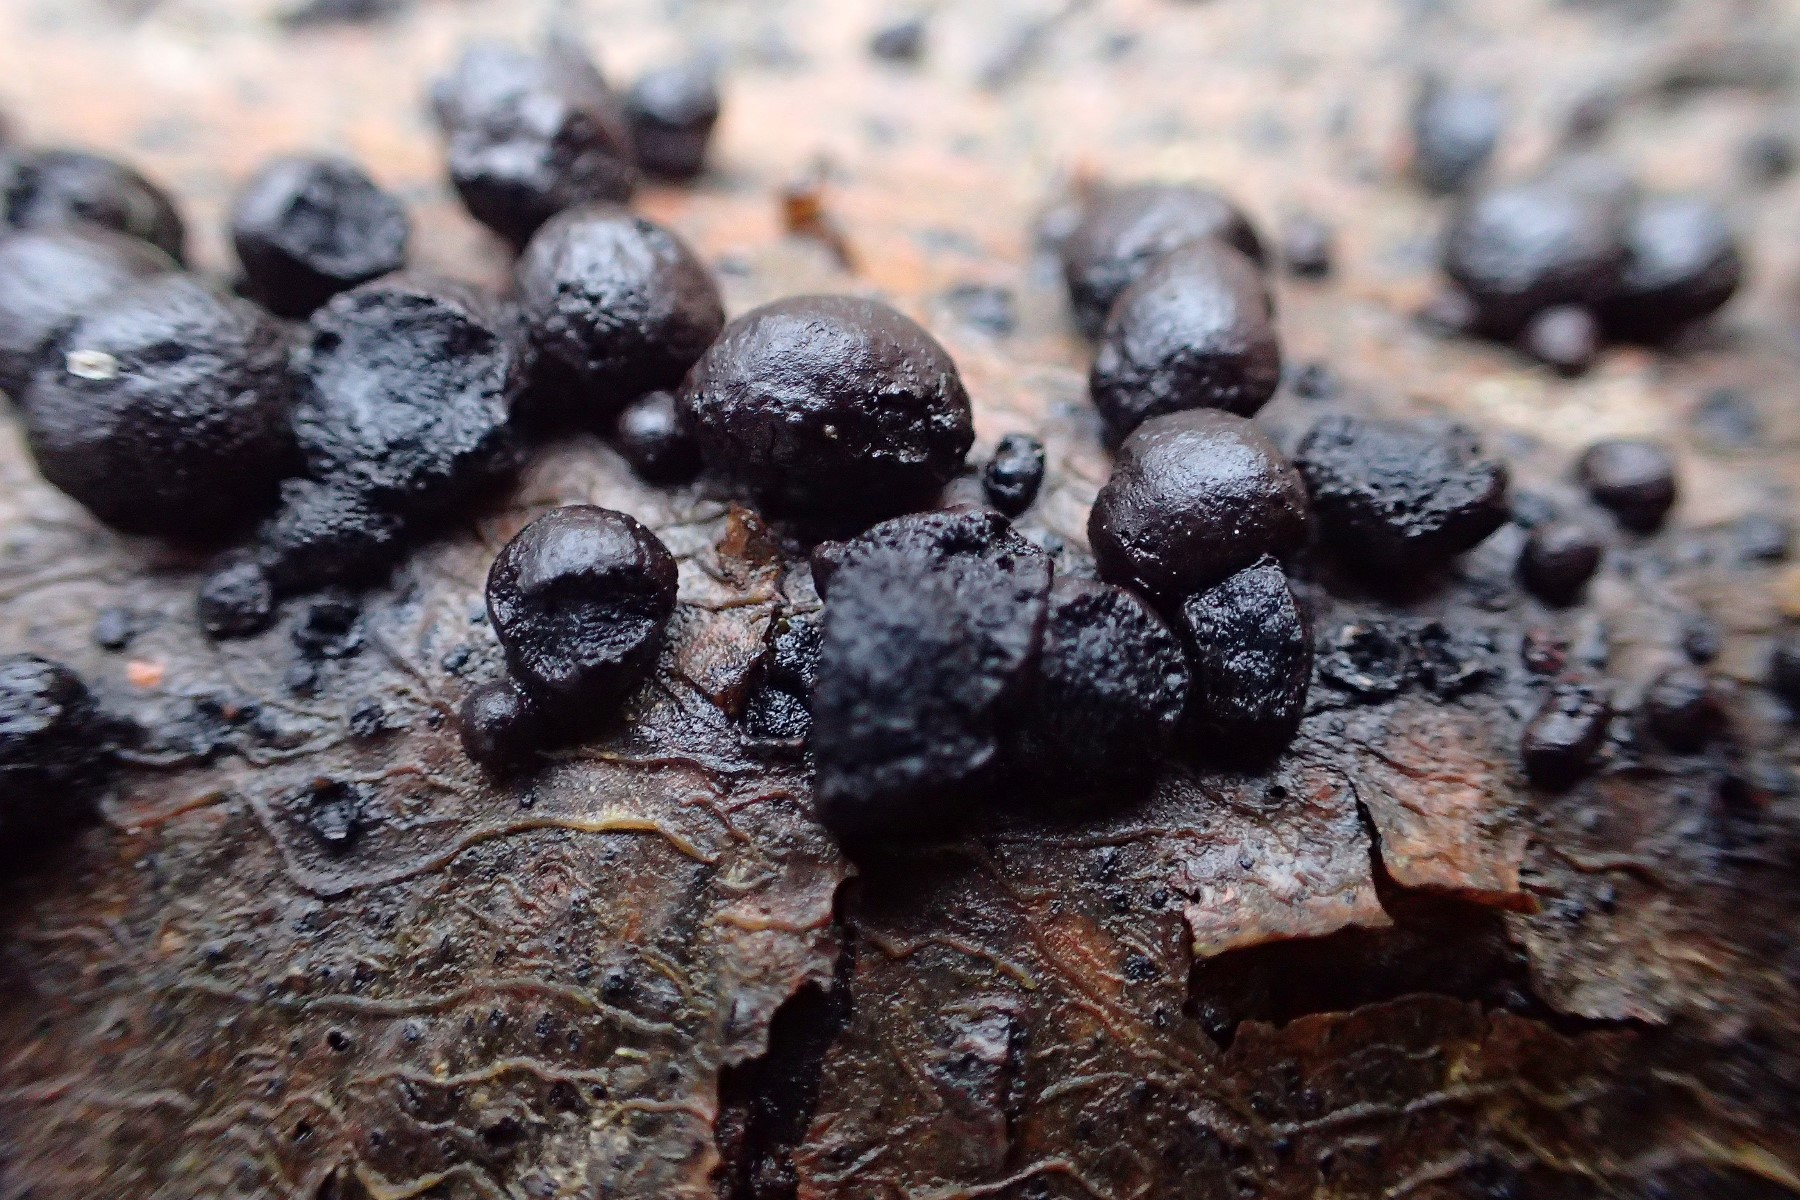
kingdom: Fungi
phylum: Ascomycota
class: Sordariomycetes
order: Xylariales
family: Hypoxylaceae
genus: Hypoxylon
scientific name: Hypoxylon fragiforme
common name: kuljordbær
